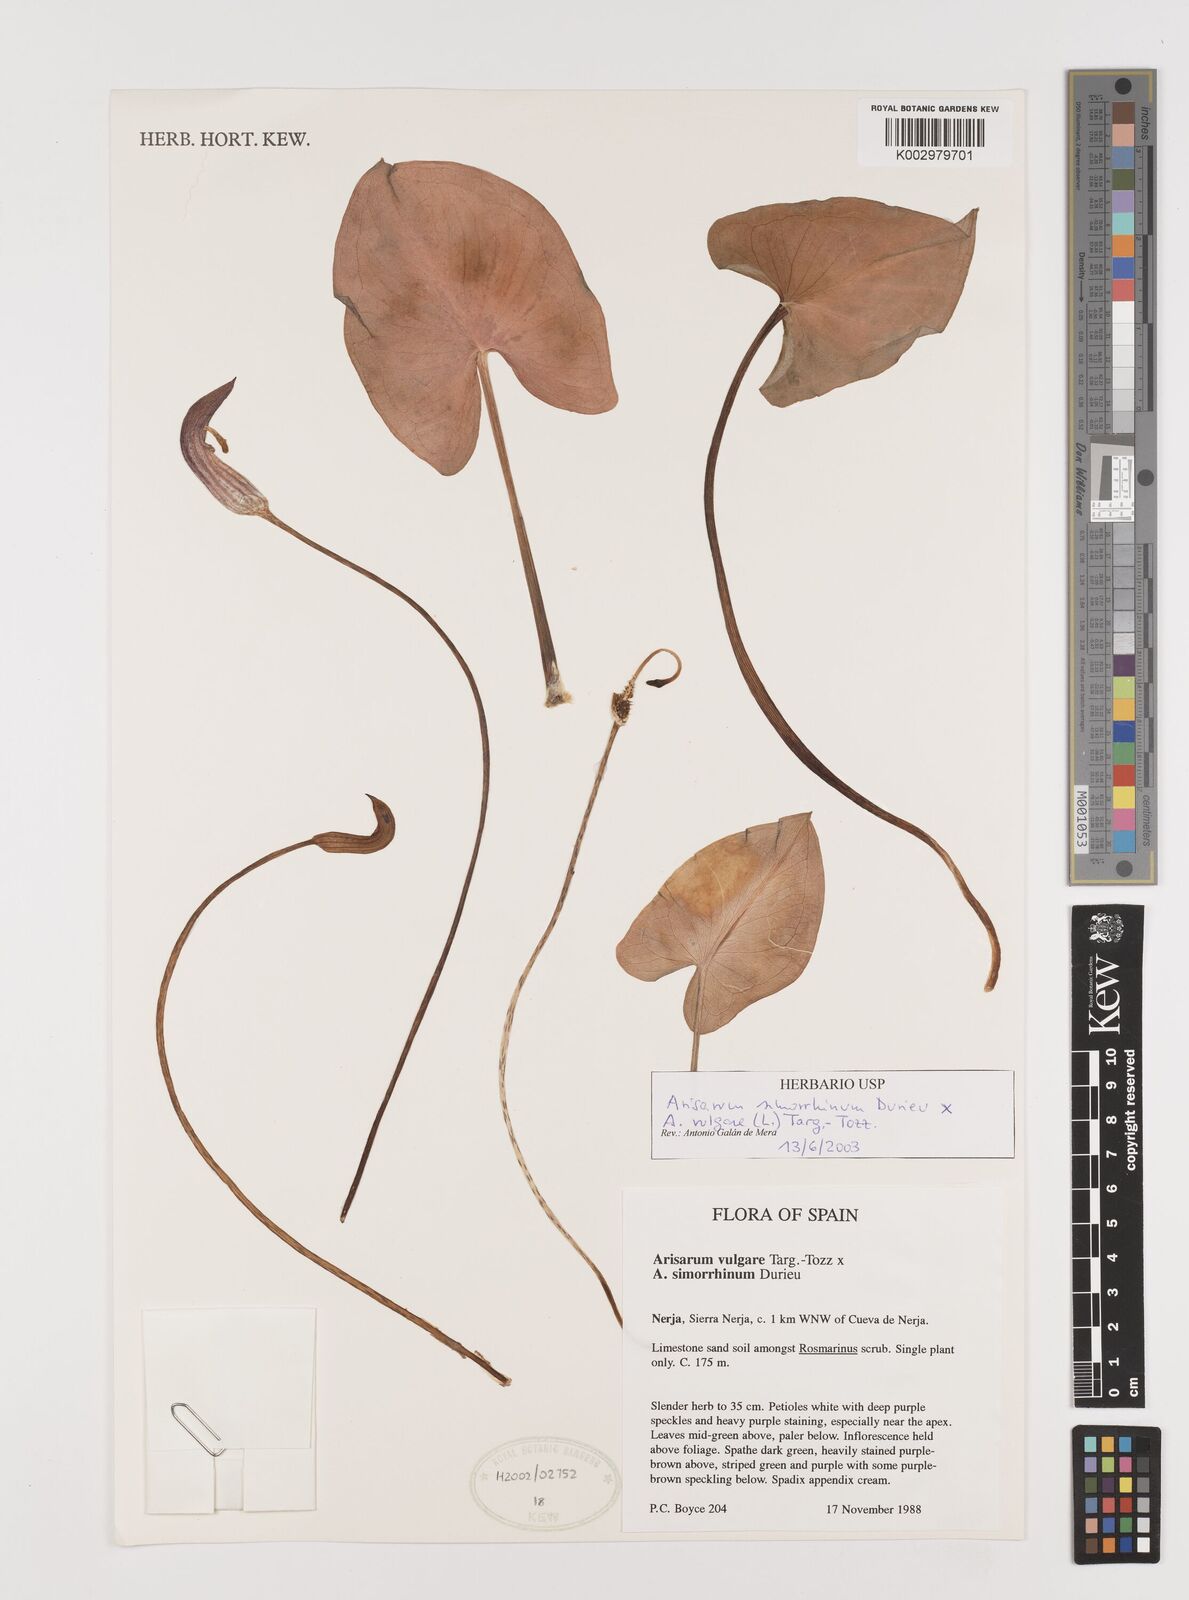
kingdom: Plantae
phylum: Tracheophyta
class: Liliopsida
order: Alismatales
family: Araceae
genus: Arisarum
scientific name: Arisarum
